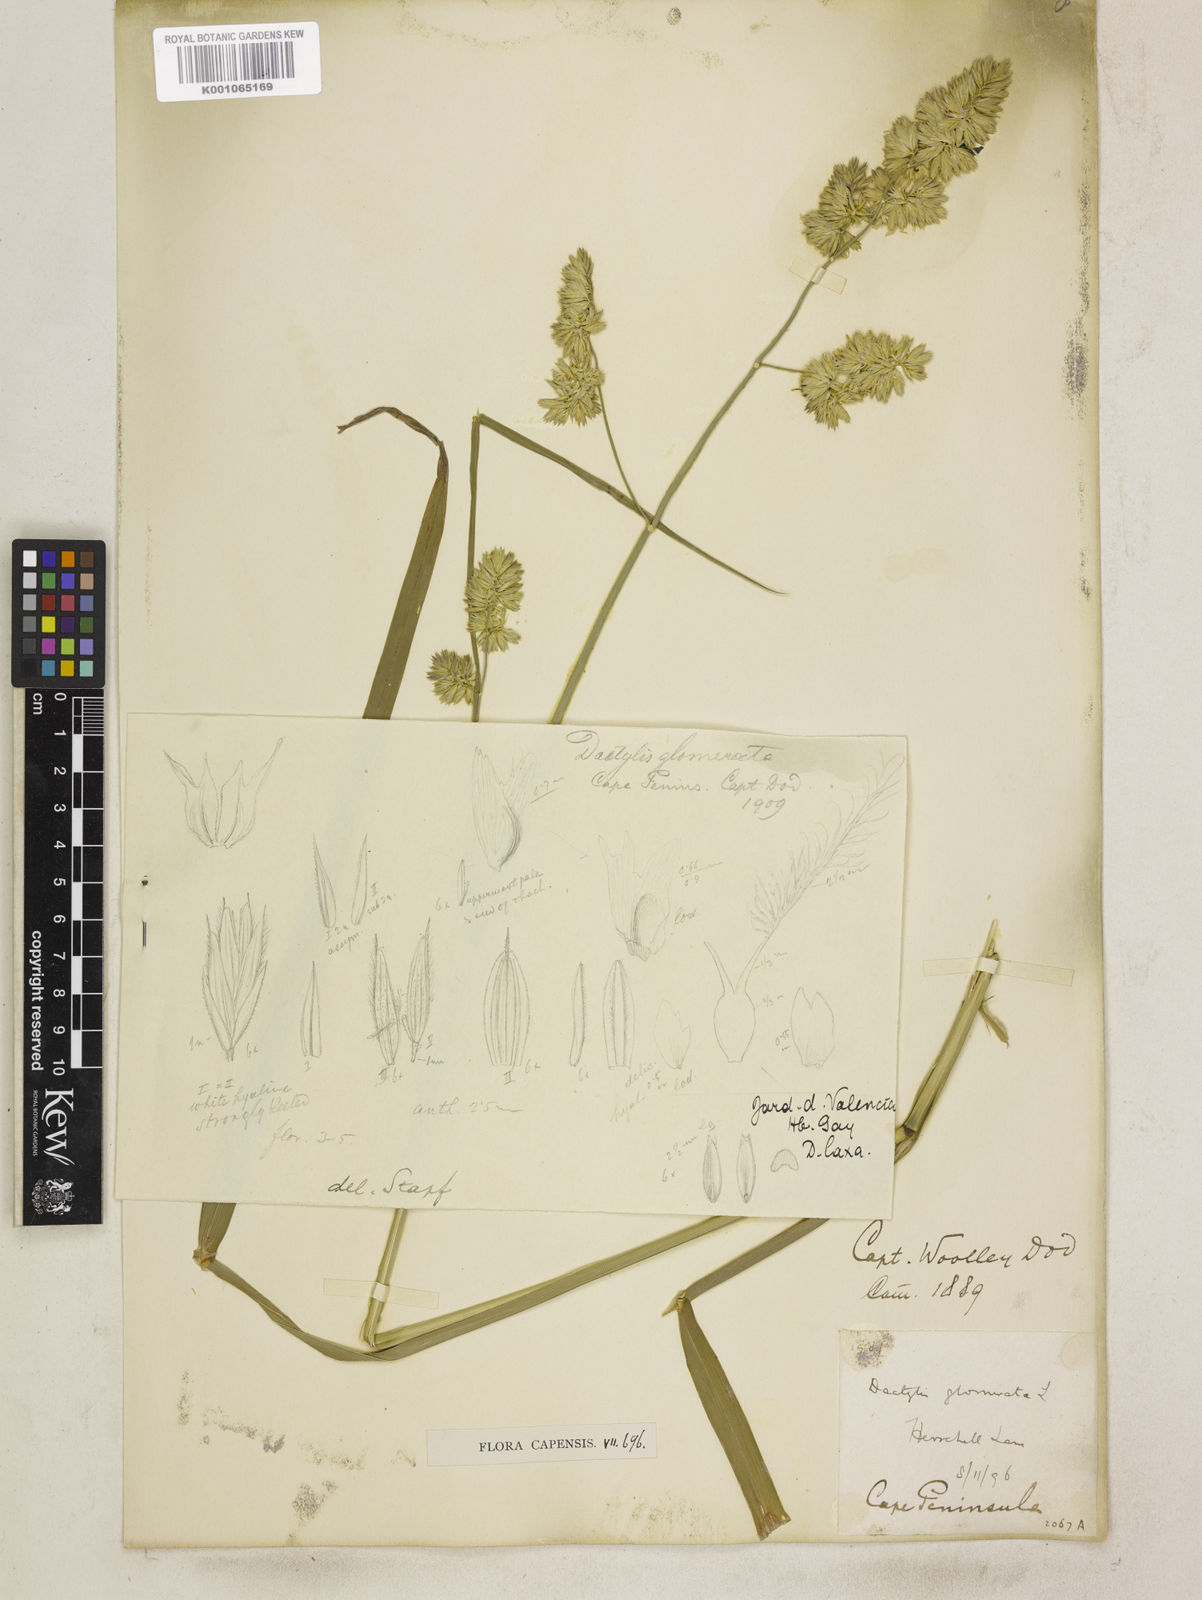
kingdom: Plantae
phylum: Tracheophyta
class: Liliopsida
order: Poales
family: Poaceae
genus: Dactylis
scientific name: Dactylis glomerata
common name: Orchardgrass
